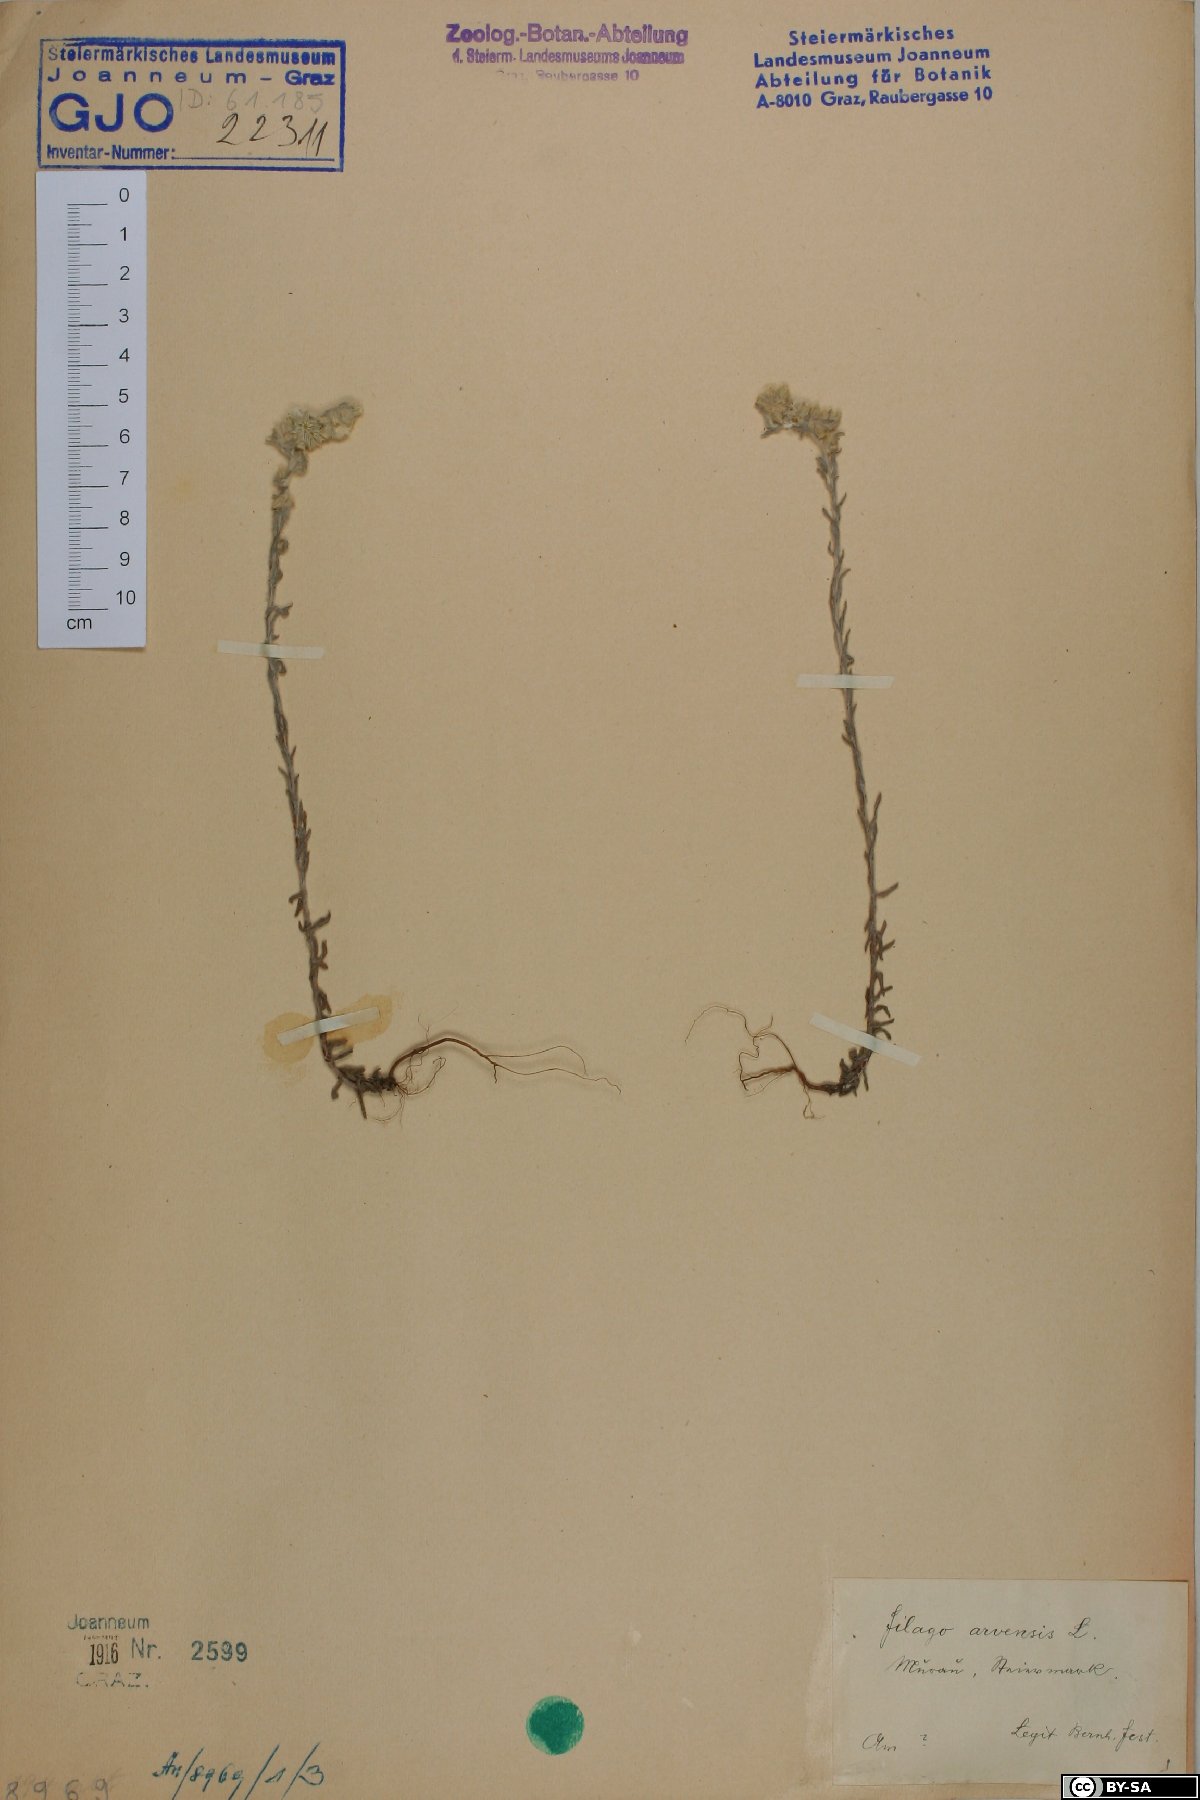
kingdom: Plantae
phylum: Tracheophyta
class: Magnoliopsida
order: Asterales
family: Asteraceae
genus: Filago
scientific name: Filago arvensis
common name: Field cudweed
